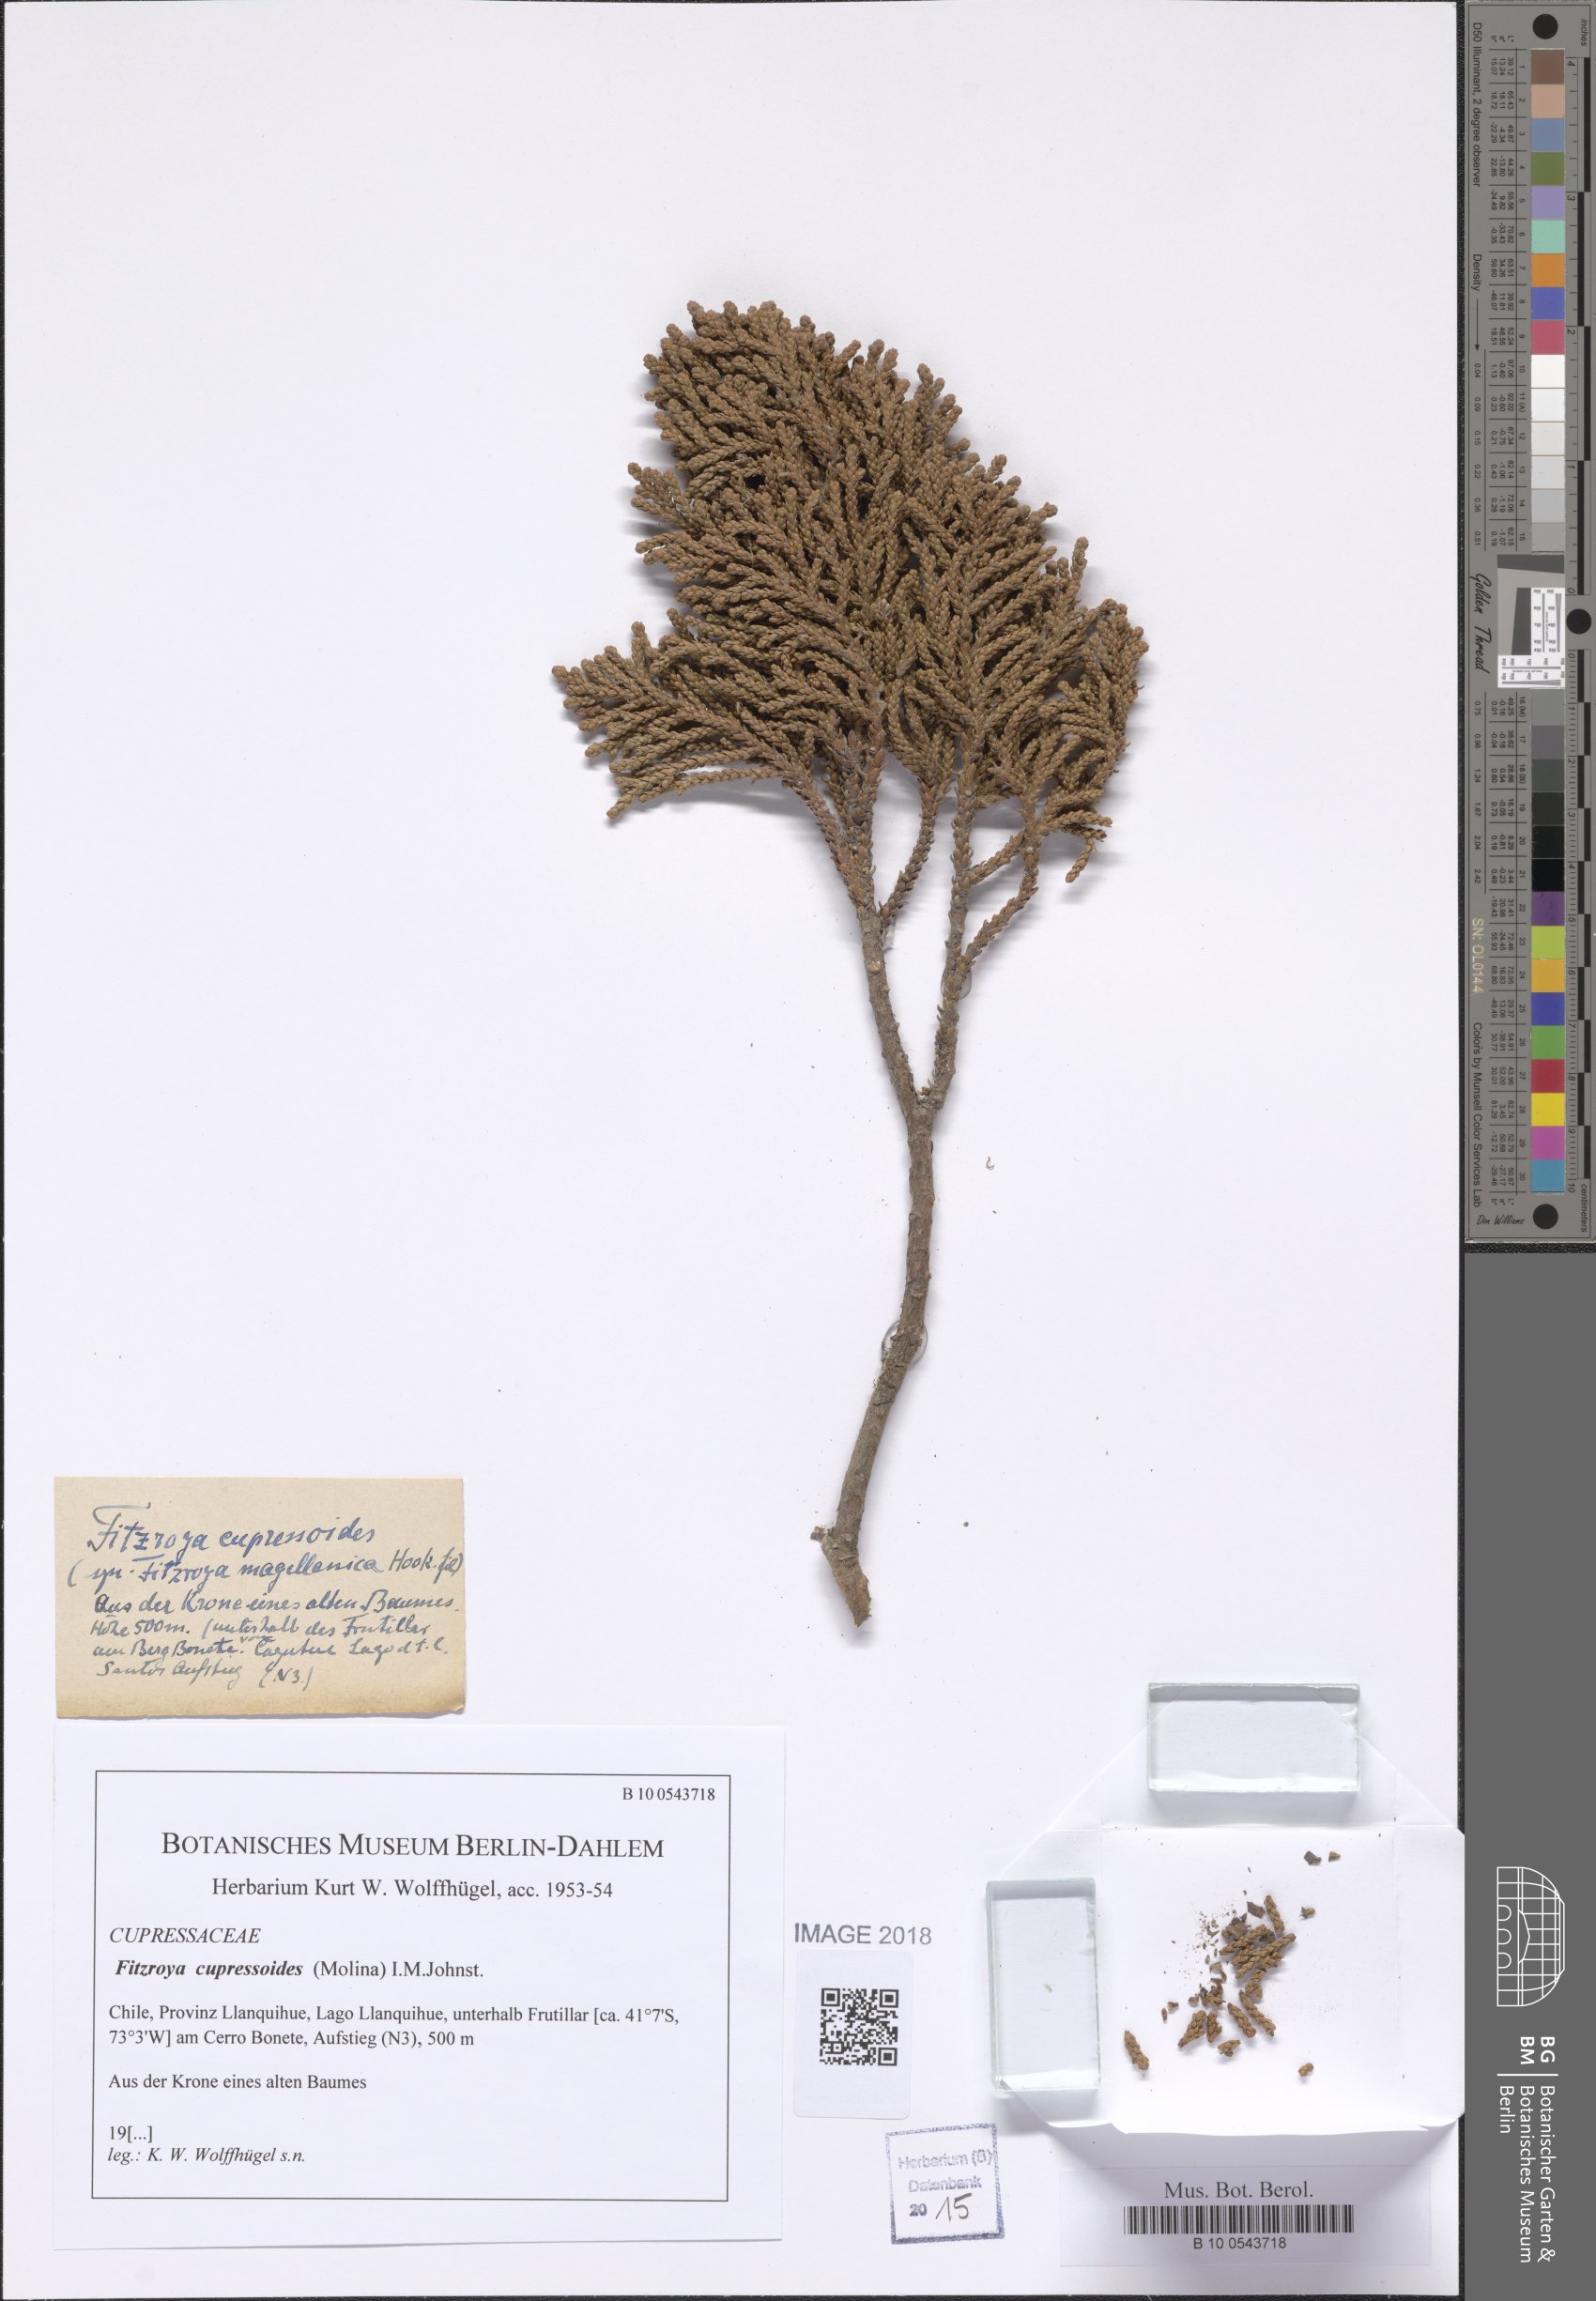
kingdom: Plantae
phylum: Tracheophyta
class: Pinopsida
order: Pinales
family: Cupressaceae
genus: Fitzroya
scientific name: Fitzroya cupressoides
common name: Patagonian cypress
